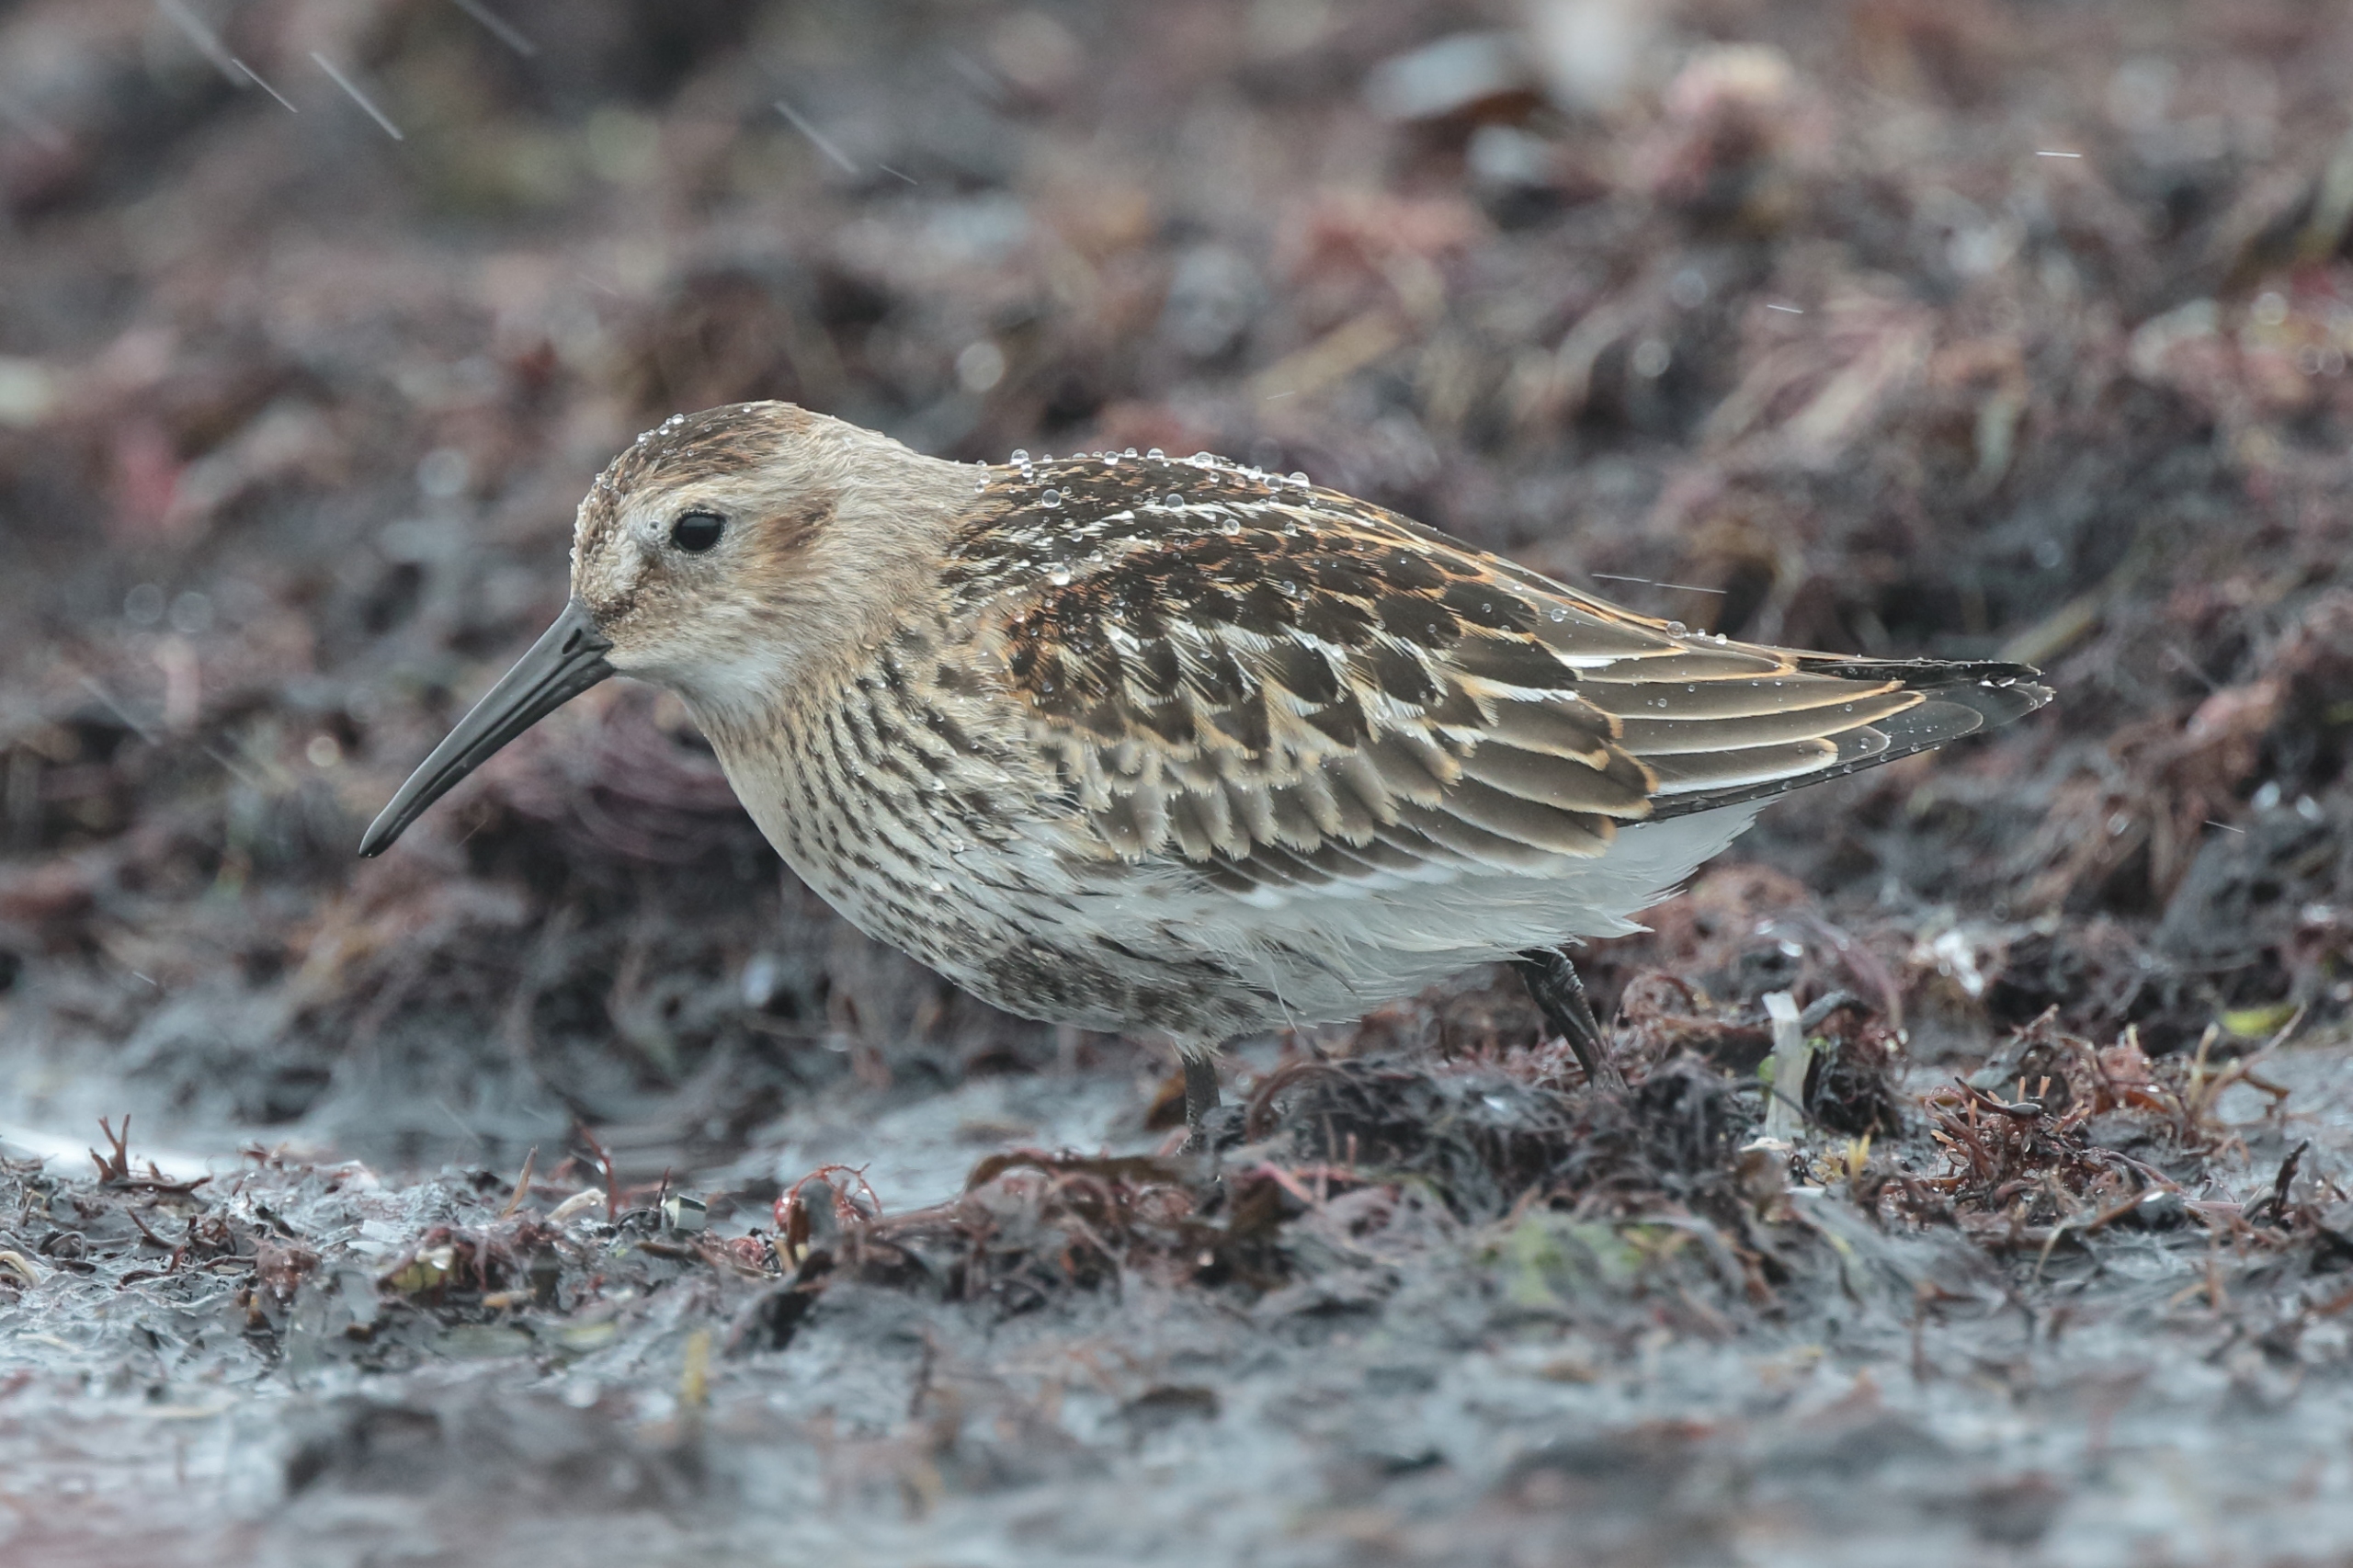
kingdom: Animalia
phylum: Chordata
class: Aves
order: Charadriiformes
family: Scolopacidae
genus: Calidris
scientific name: Calidris alpina
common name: Almindelig ryle
